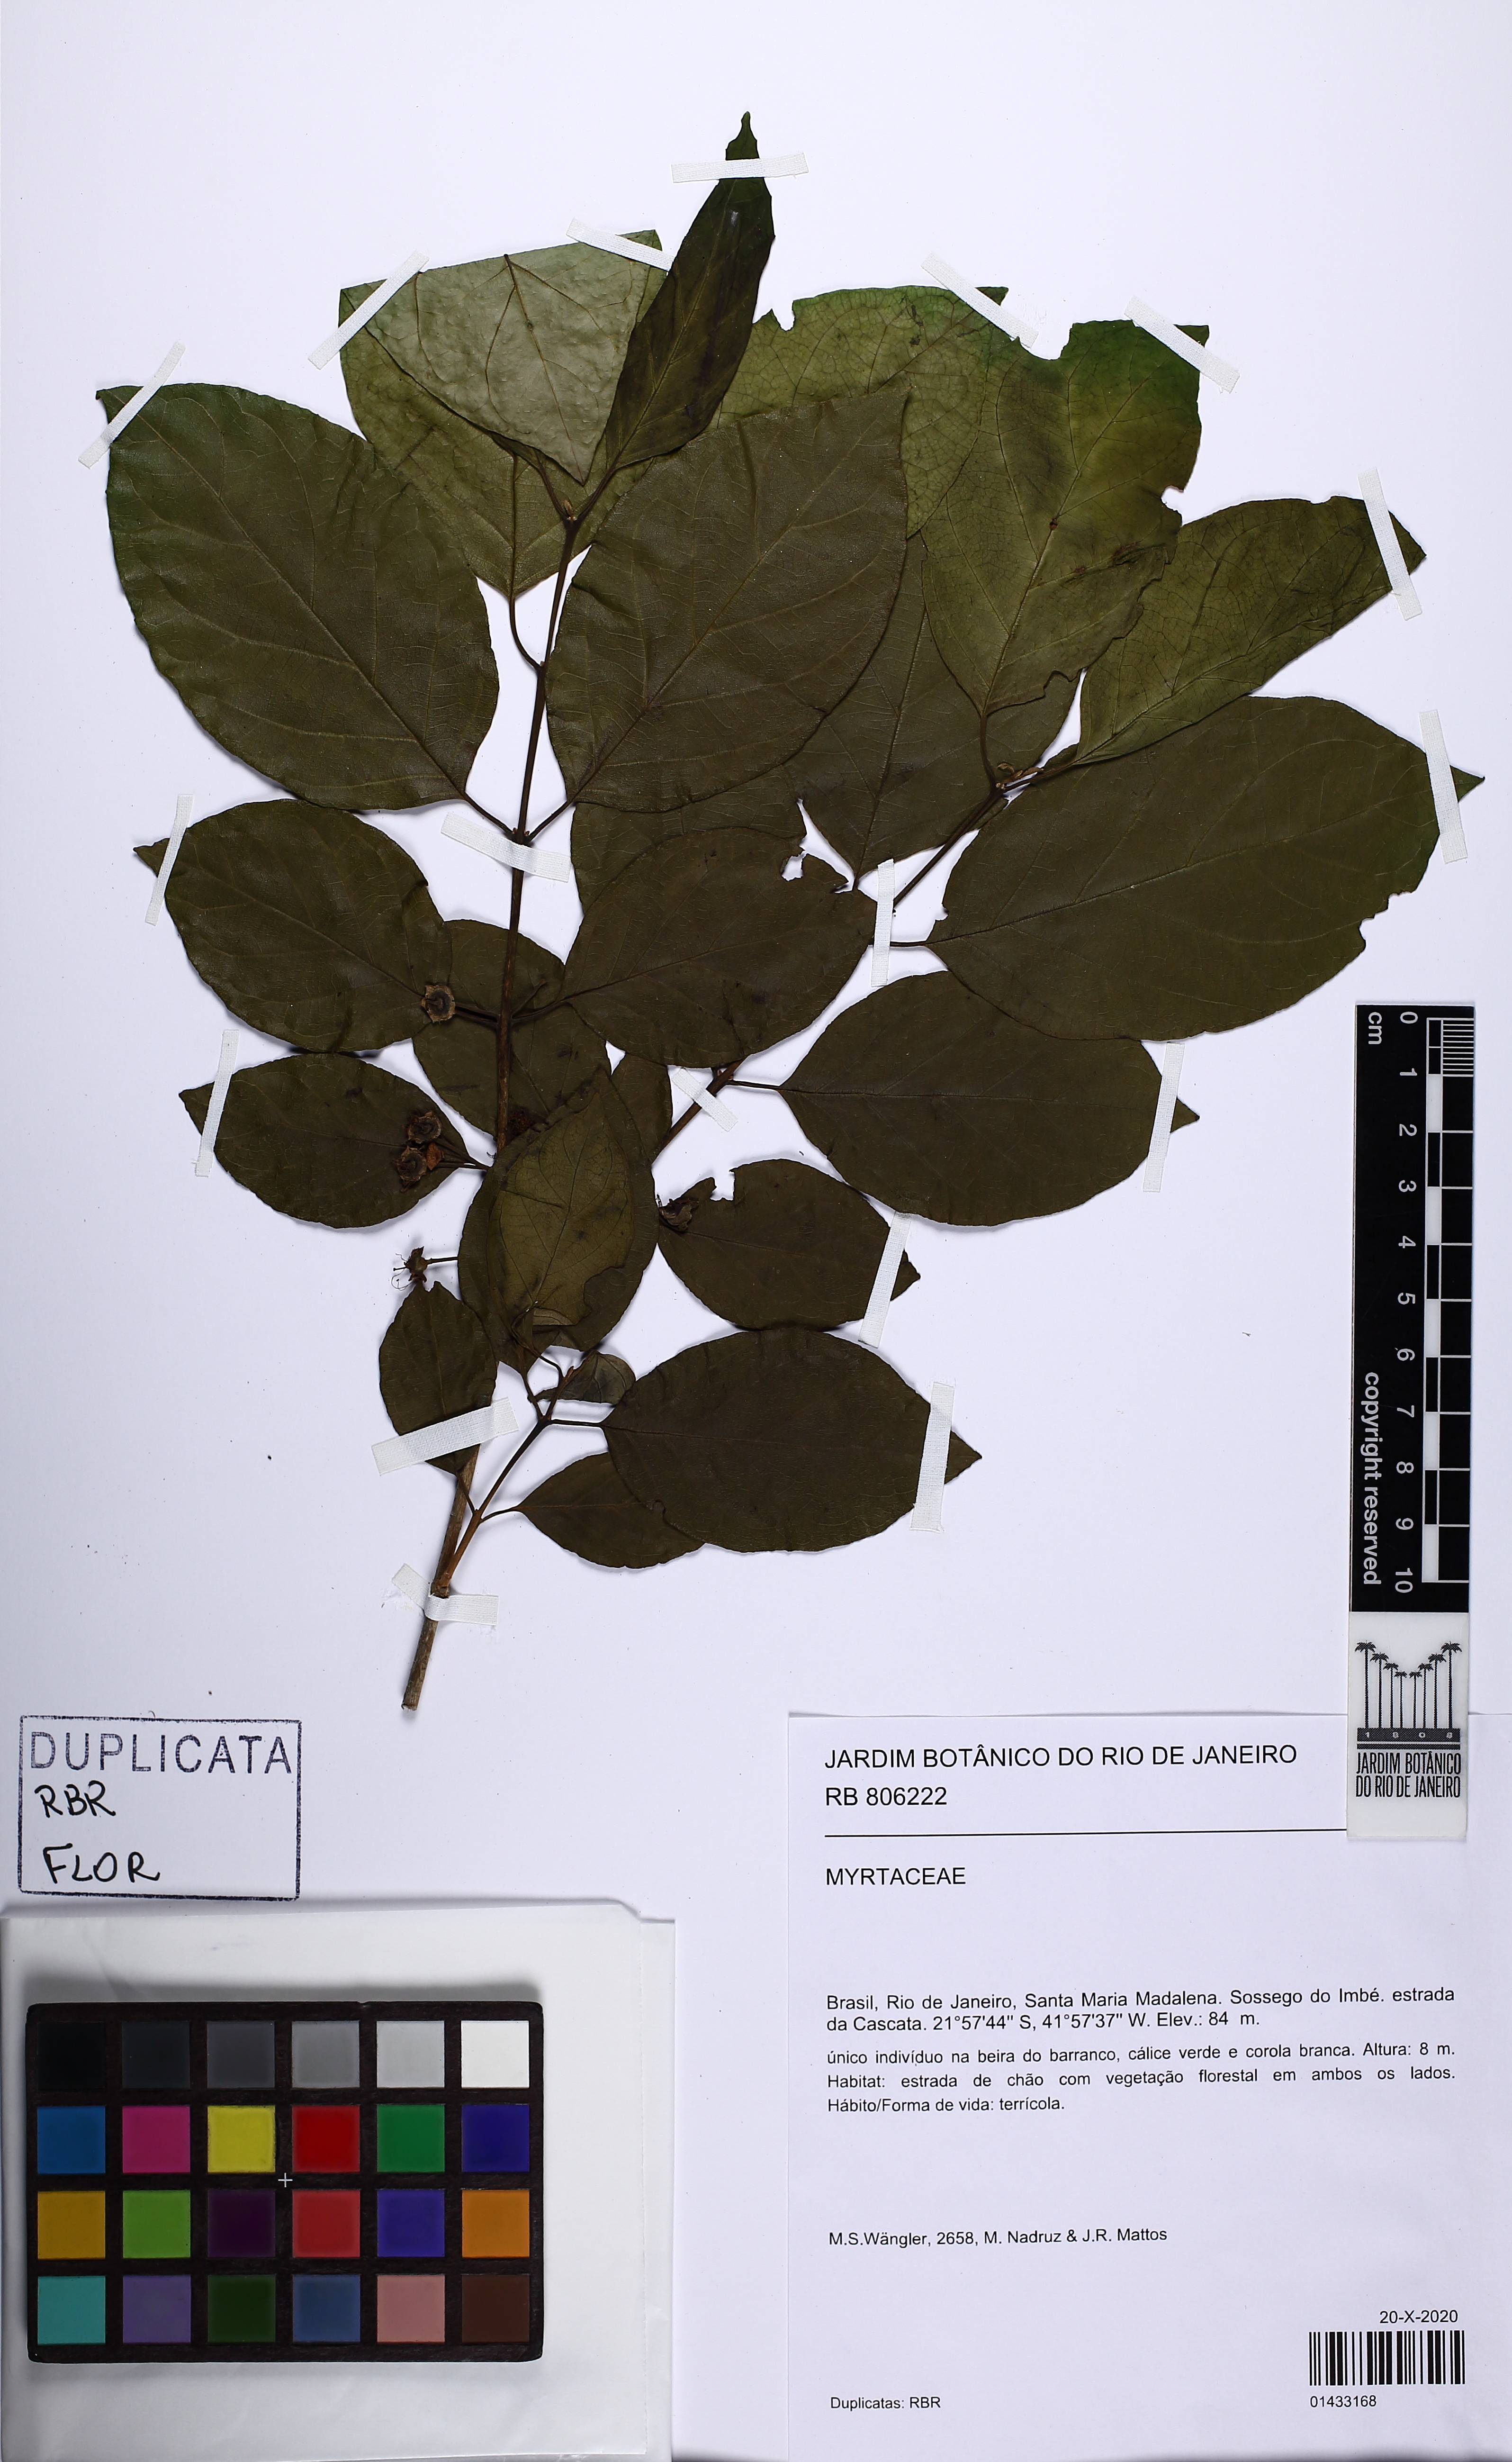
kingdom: Plantae
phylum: Tracheophyta
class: Magnoliopsida
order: Myrtales
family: Myrtaceae
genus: Campomanesia
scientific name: Campomanesia
